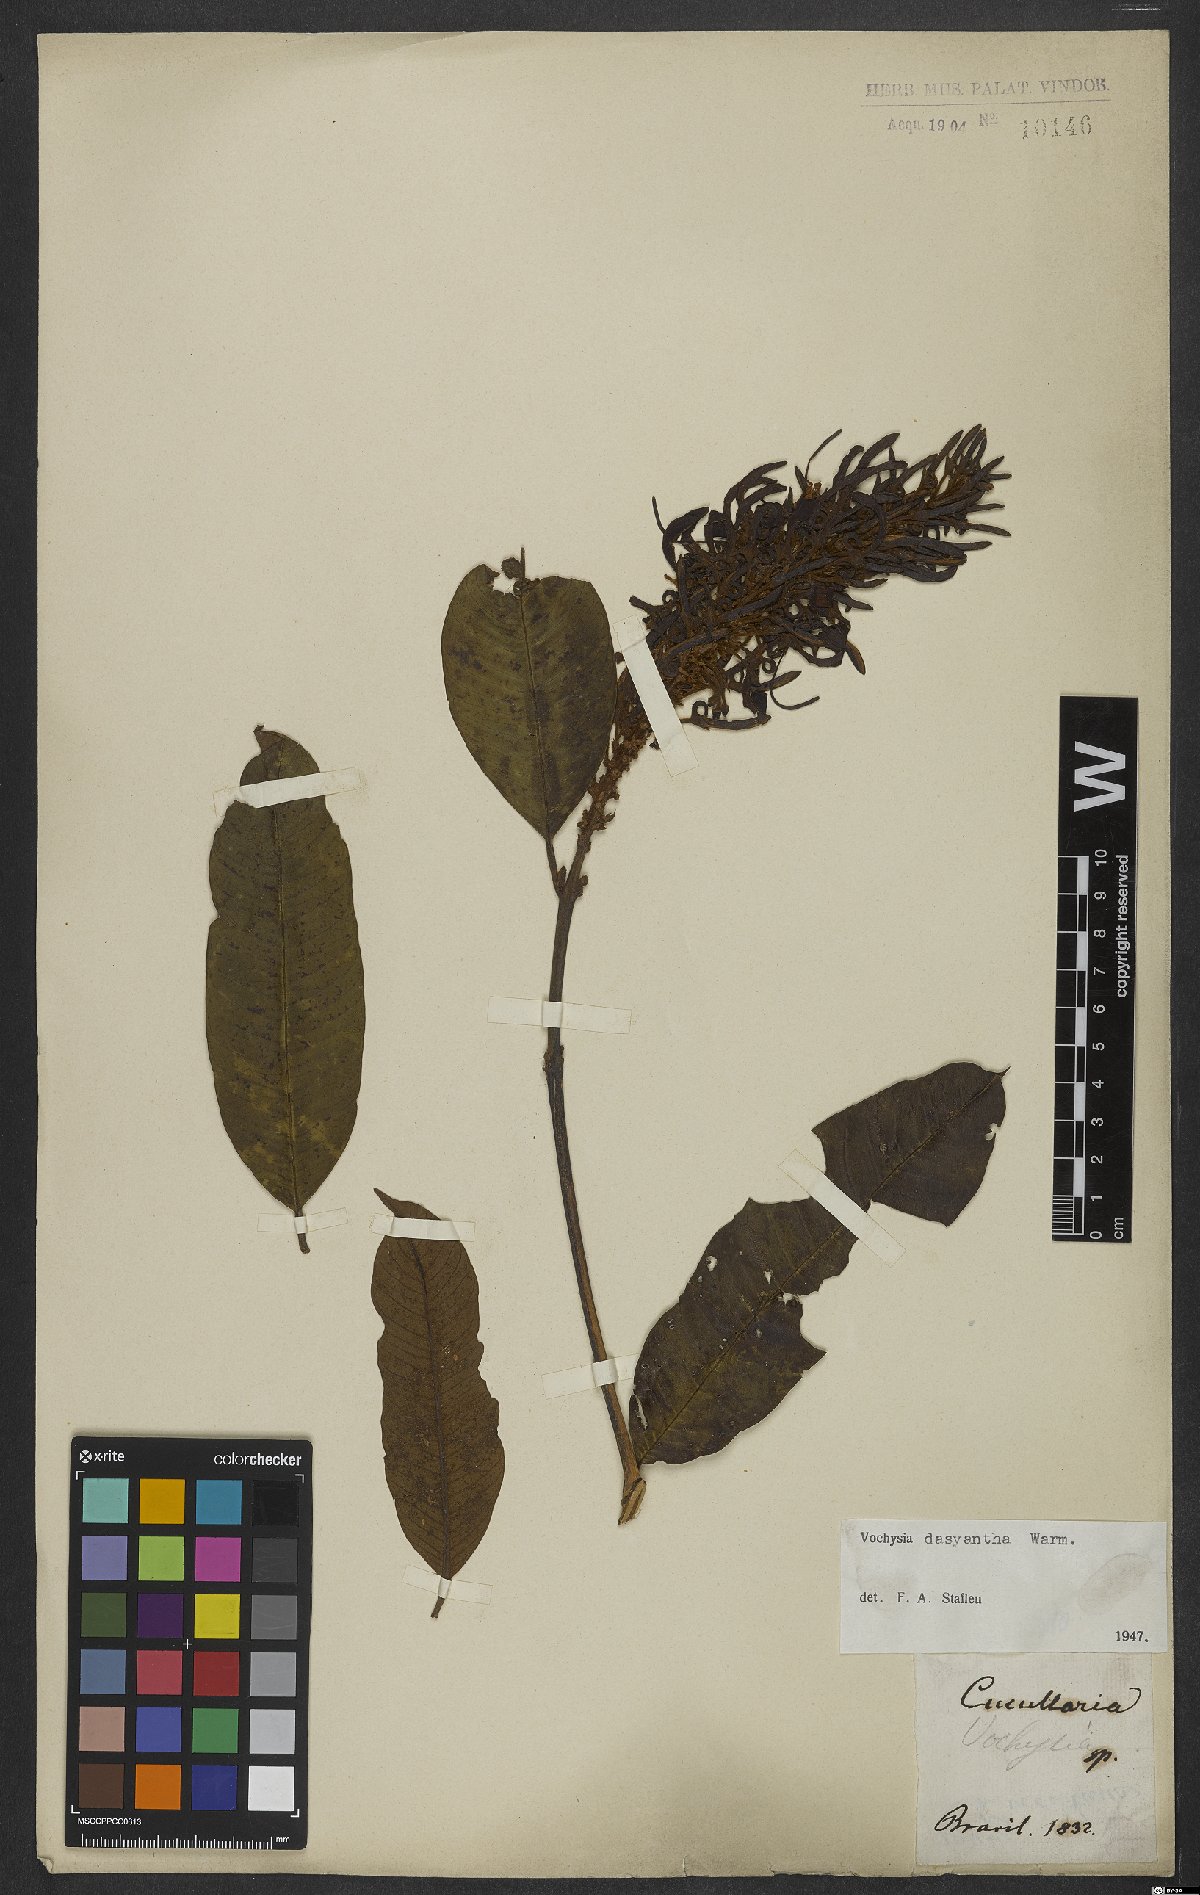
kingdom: Plantae
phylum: Tracheophyta
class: Magnoliopsida
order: Myrtales
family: Vochysiaceae
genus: Vochysia
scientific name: Vochysia dasyantha
